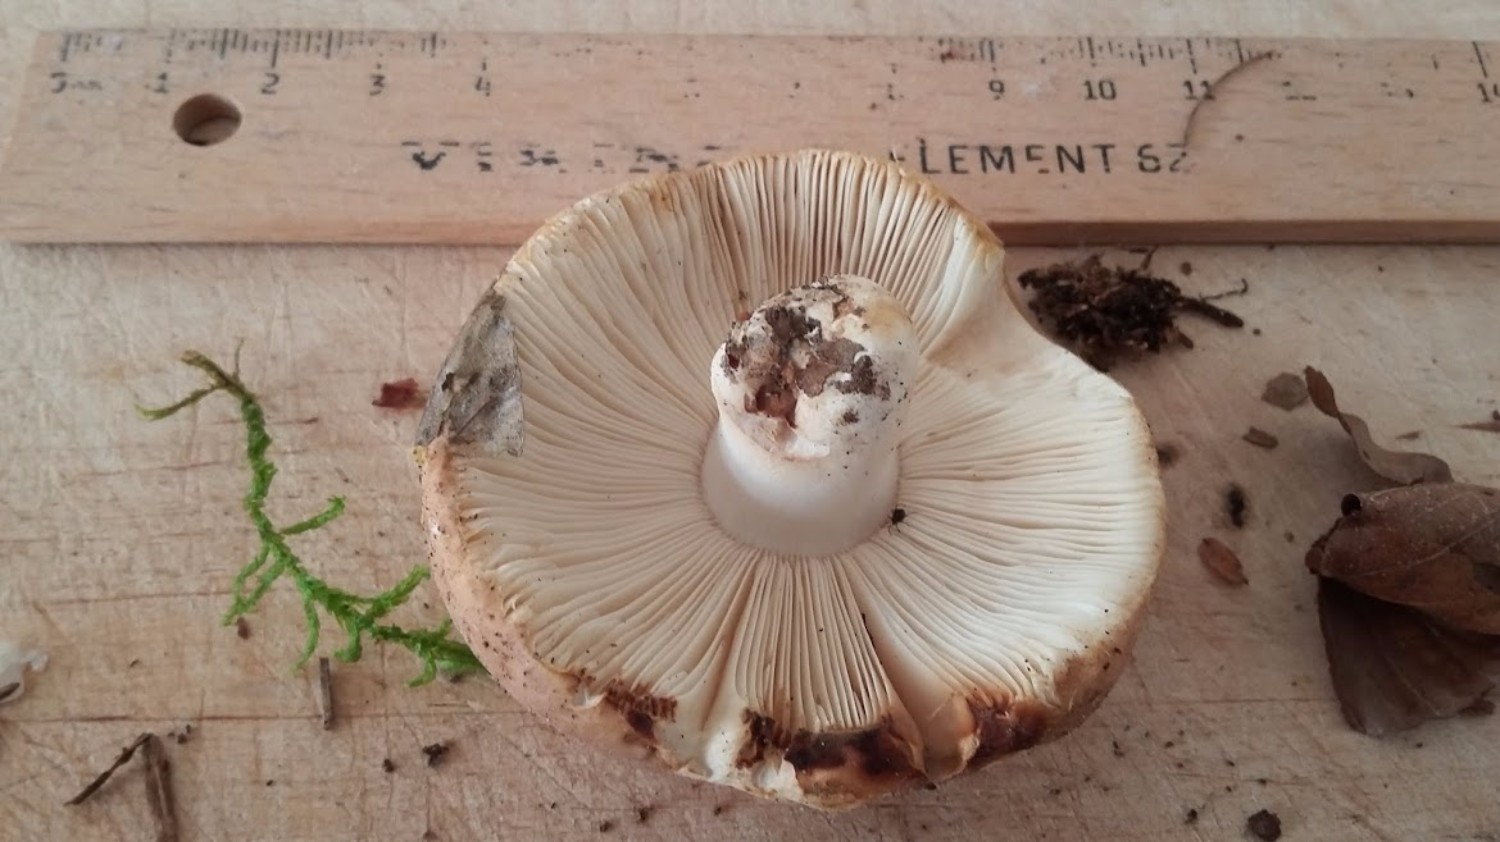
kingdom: Fungi
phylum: Basidiomycota
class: Agaricomycetes
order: Russulales
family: Russulaceae
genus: Russula
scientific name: Russula vesca
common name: spiselig skørhat
